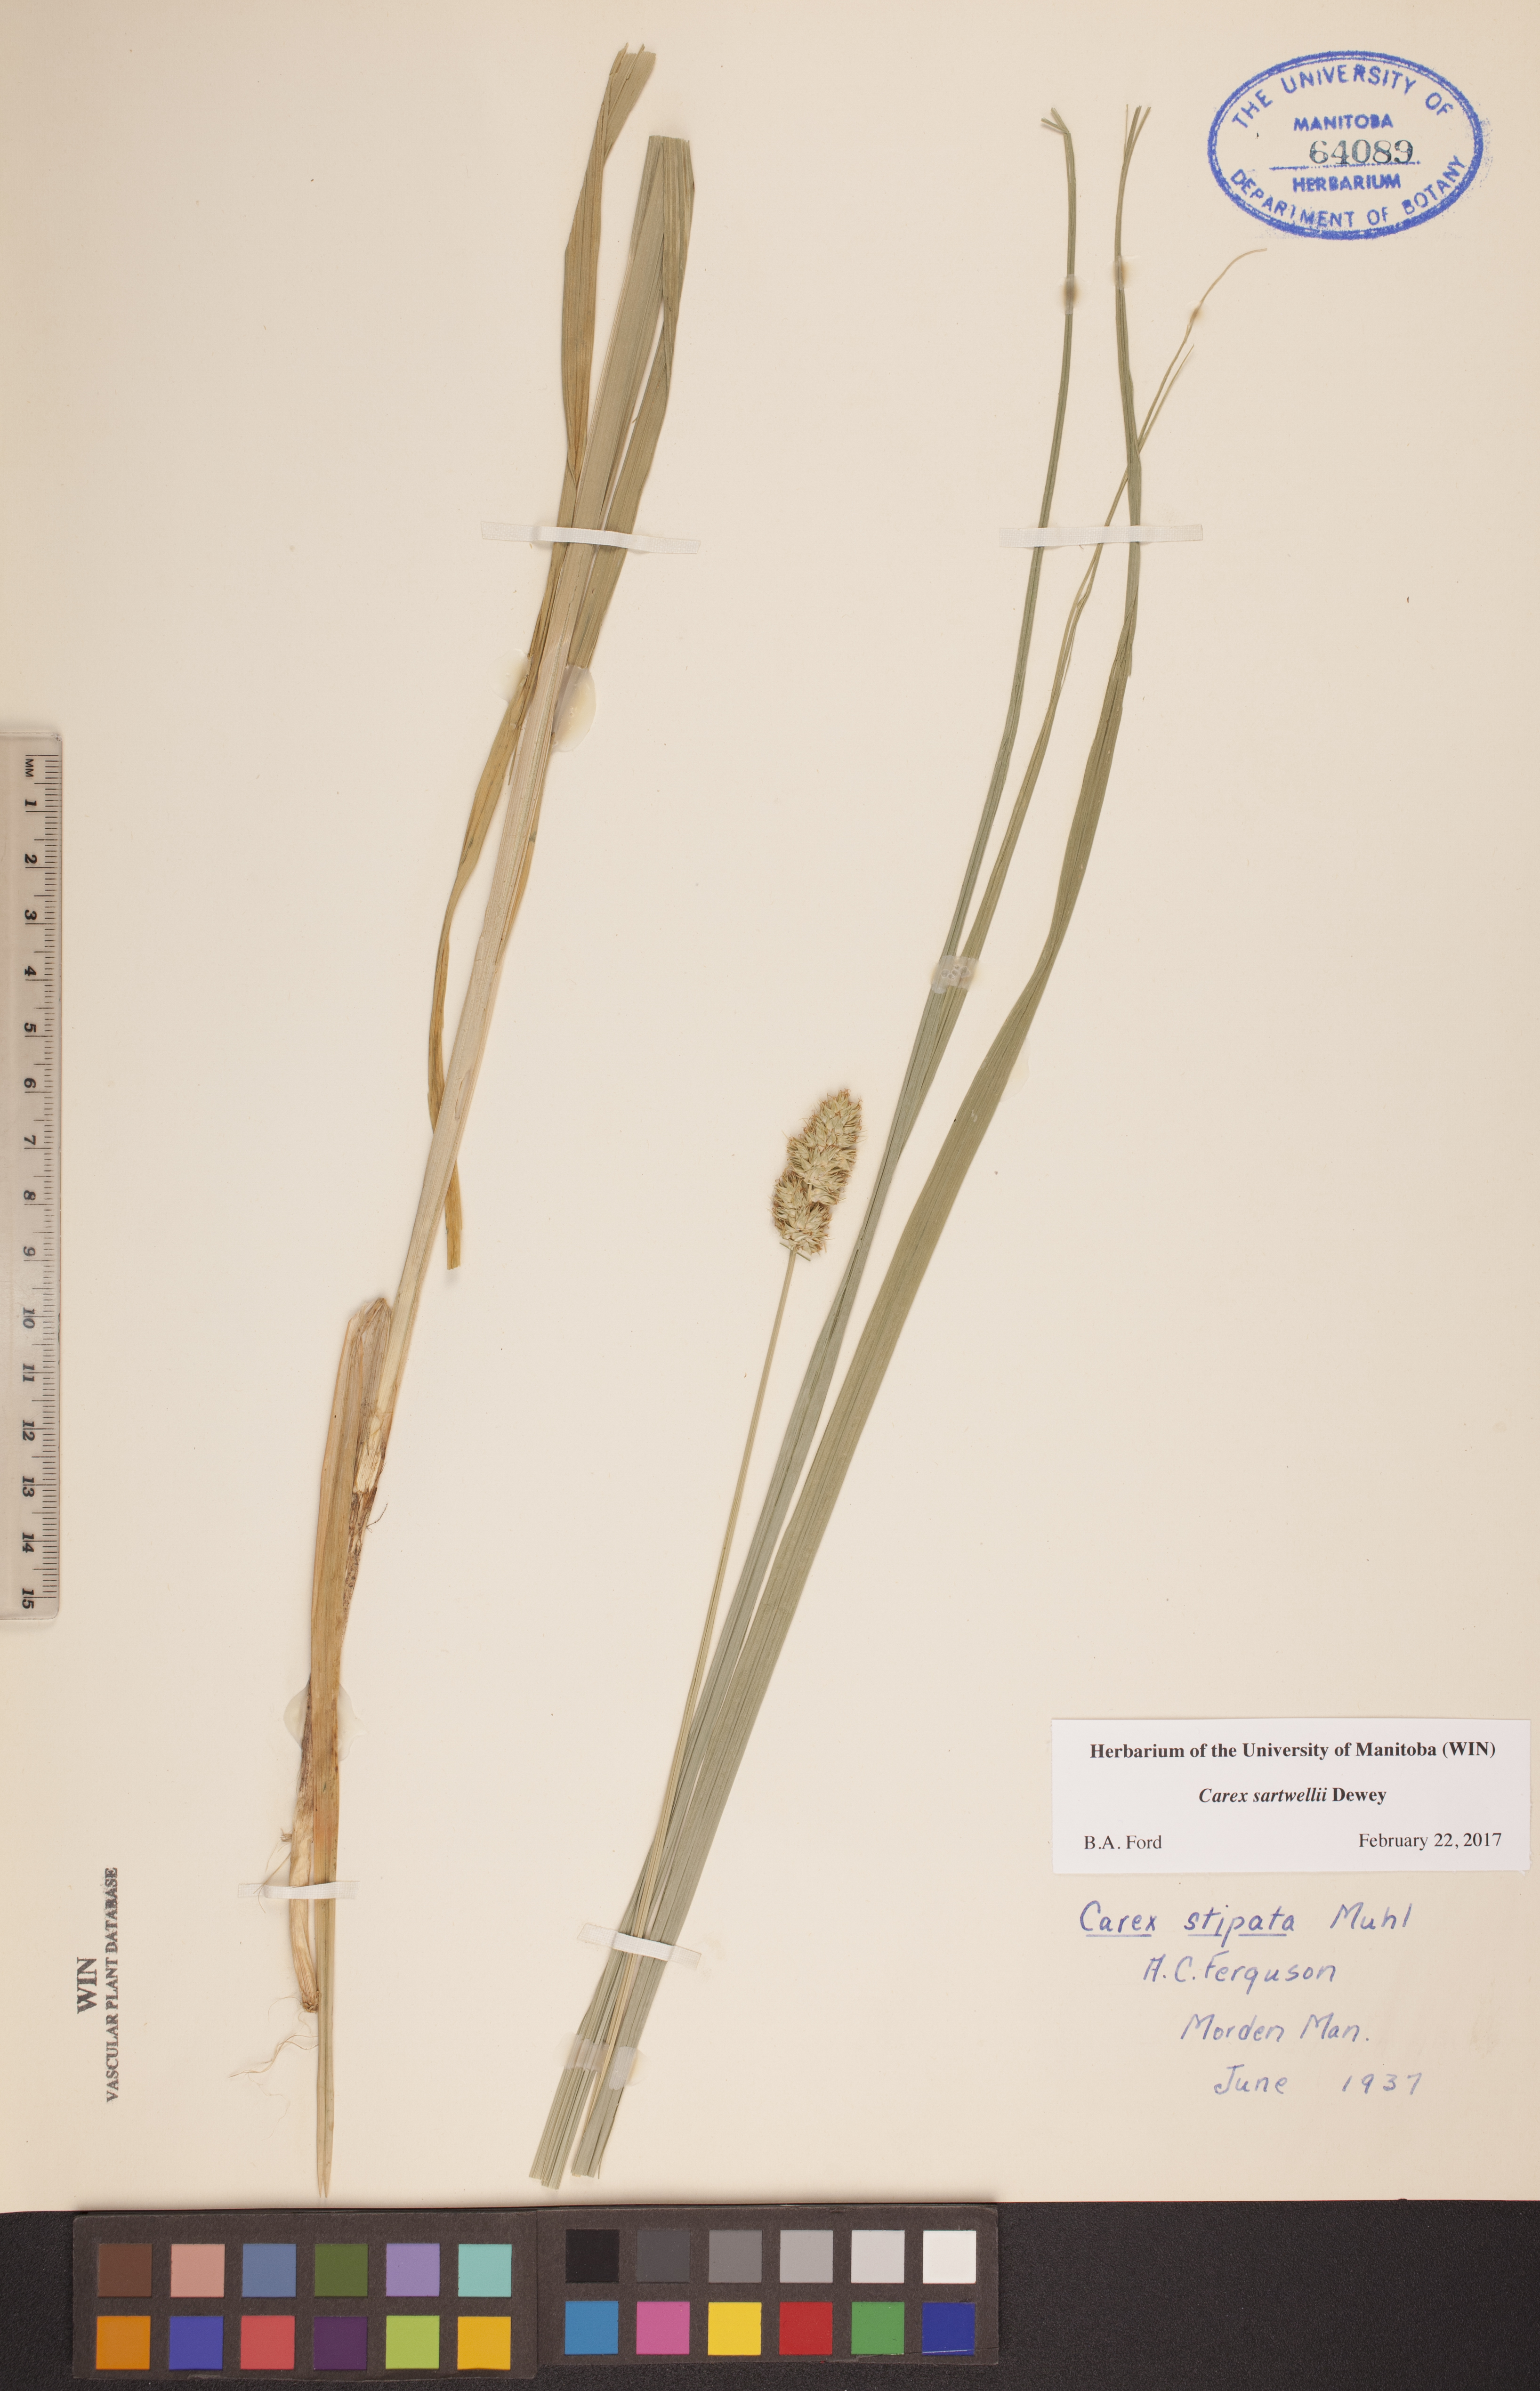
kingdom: Plantae
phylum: Tracheophyta
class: Liliopsida
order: Poales
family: Cyperaceae
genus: Carex
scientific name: Carex sartwellii
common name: Sartwell's sedge
